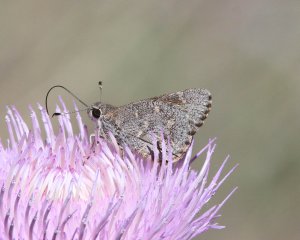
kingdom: Animalia
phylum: Arthropoda
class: Insecta
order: Lepidoptera
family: Hesperiidae
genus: Mastor
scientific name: Mastor aenus
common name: Bronze Roadside-Skipper
